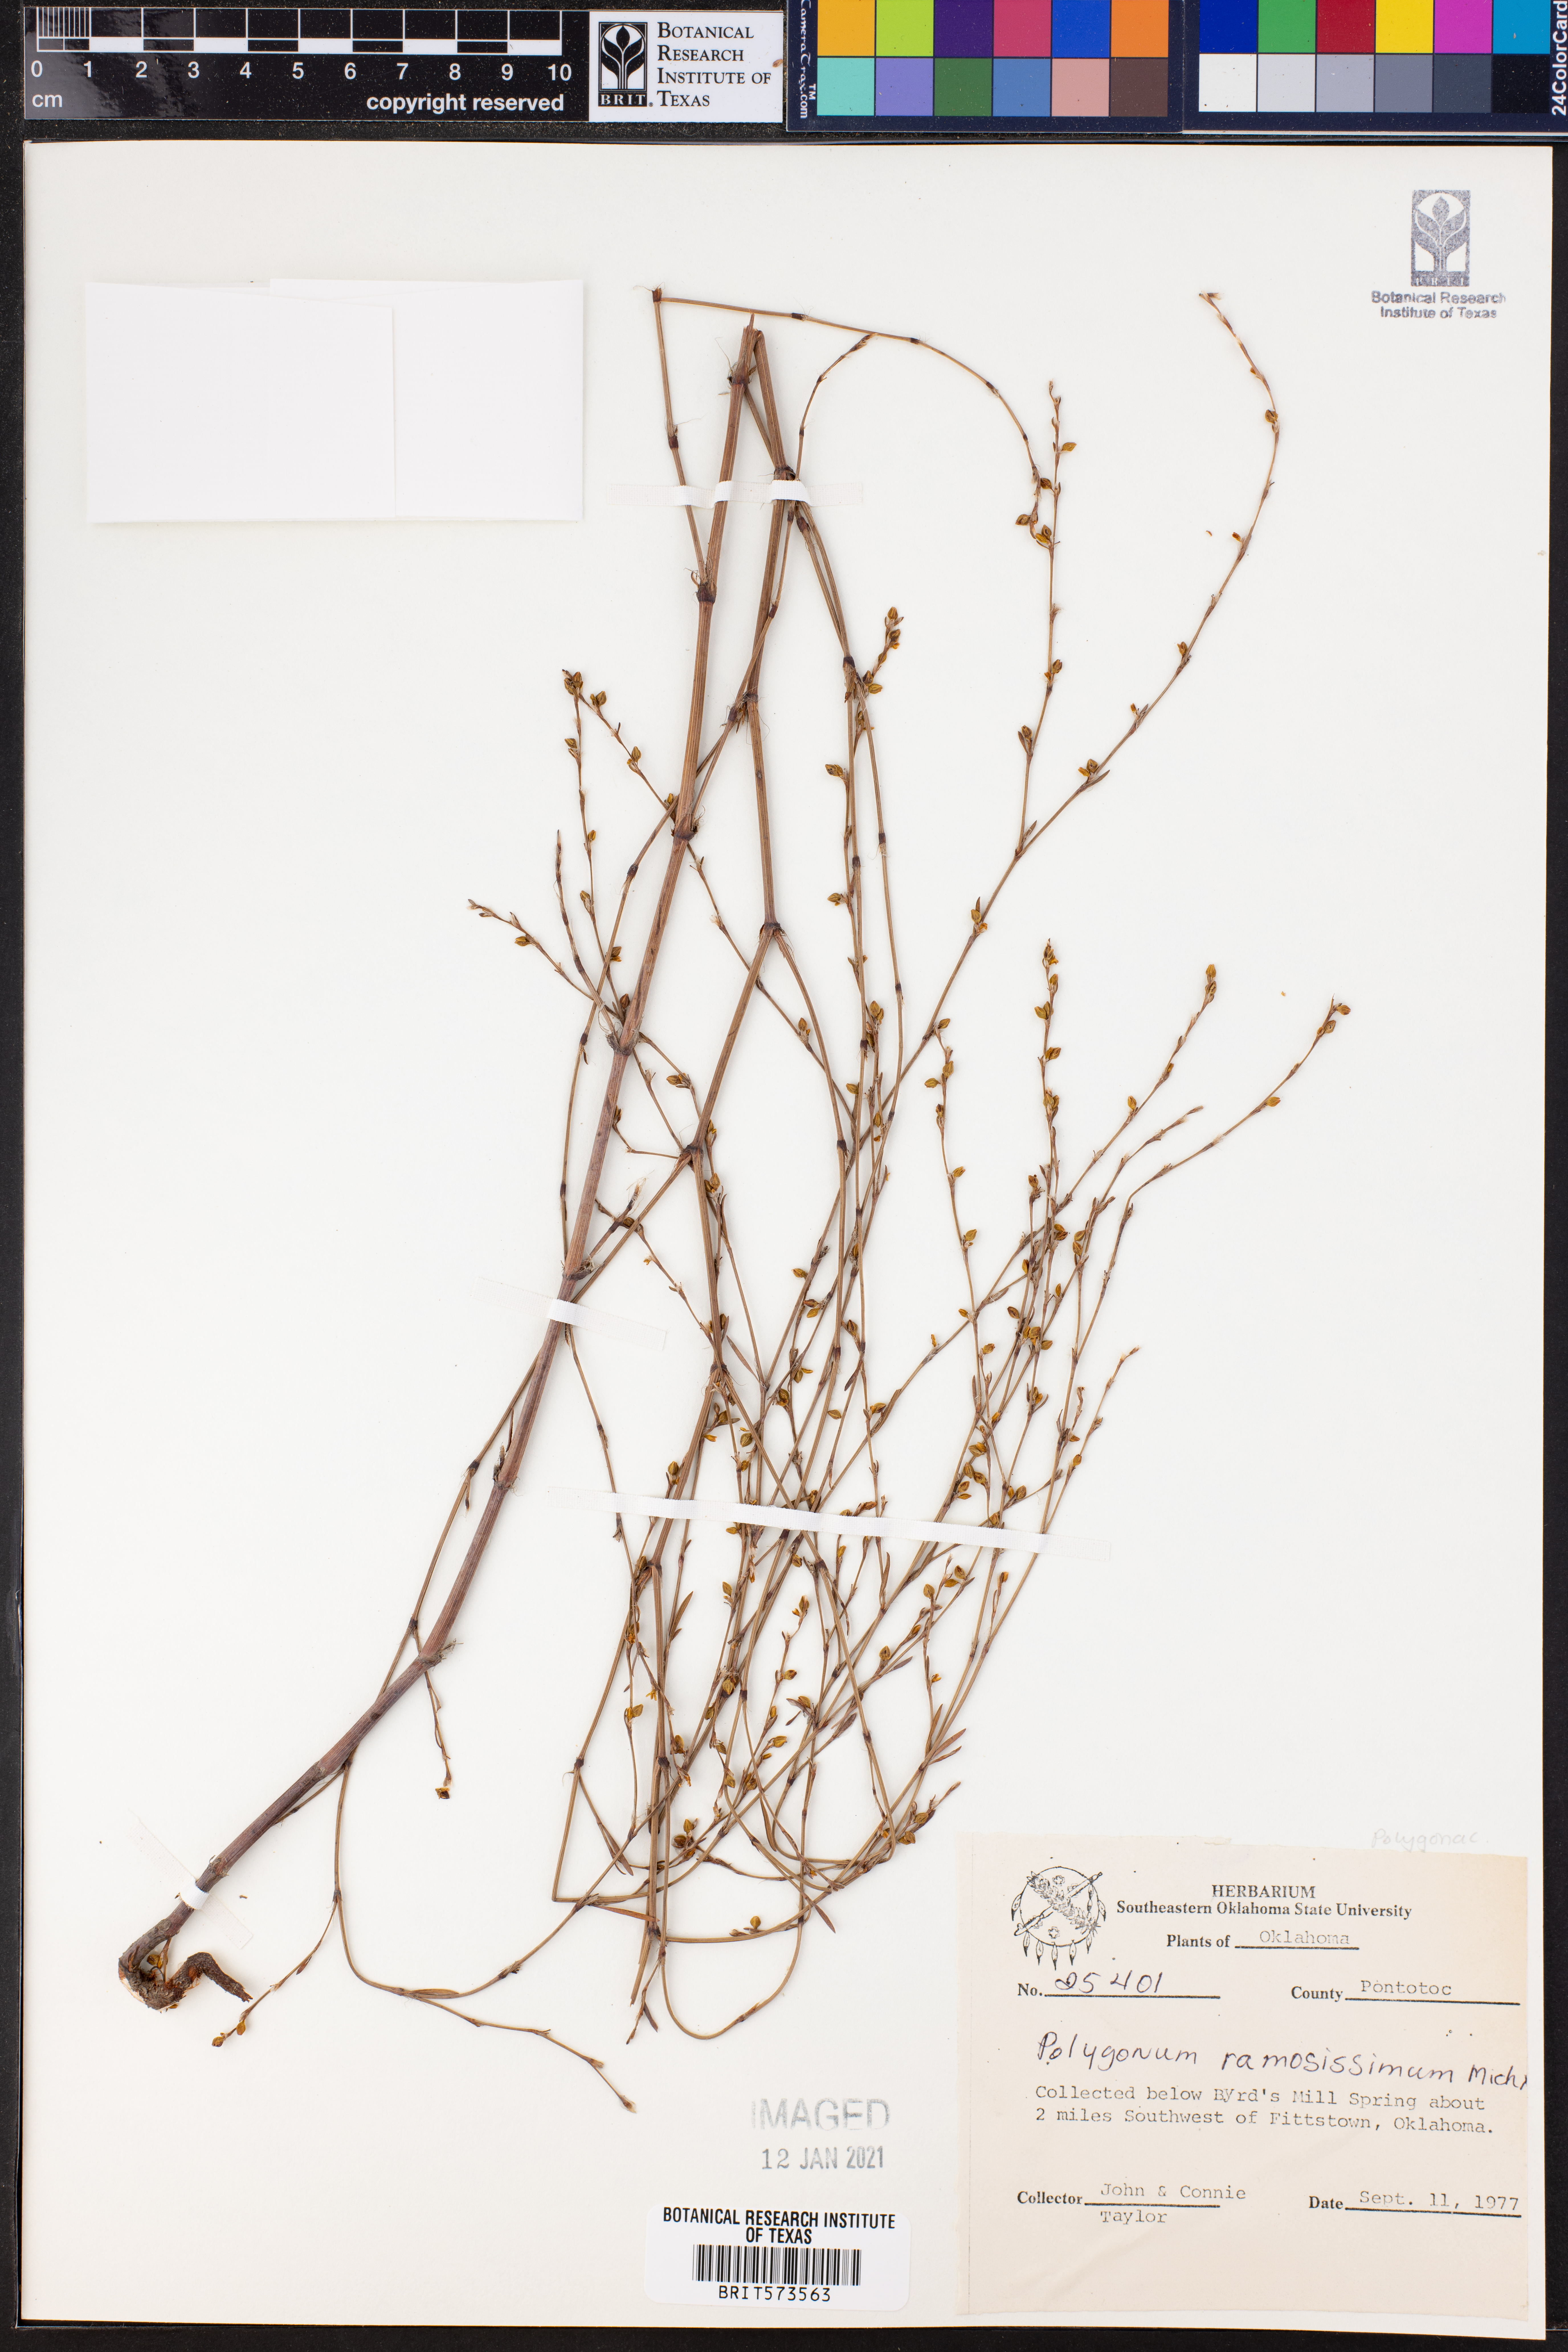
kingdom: Plantae
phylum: Tracheophyta
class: Magnoliopsida
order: Caryophyllales
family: Polygonaceae
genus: Polygonum
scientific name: Polygonum ramosissimum
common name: Bushy knotweed
